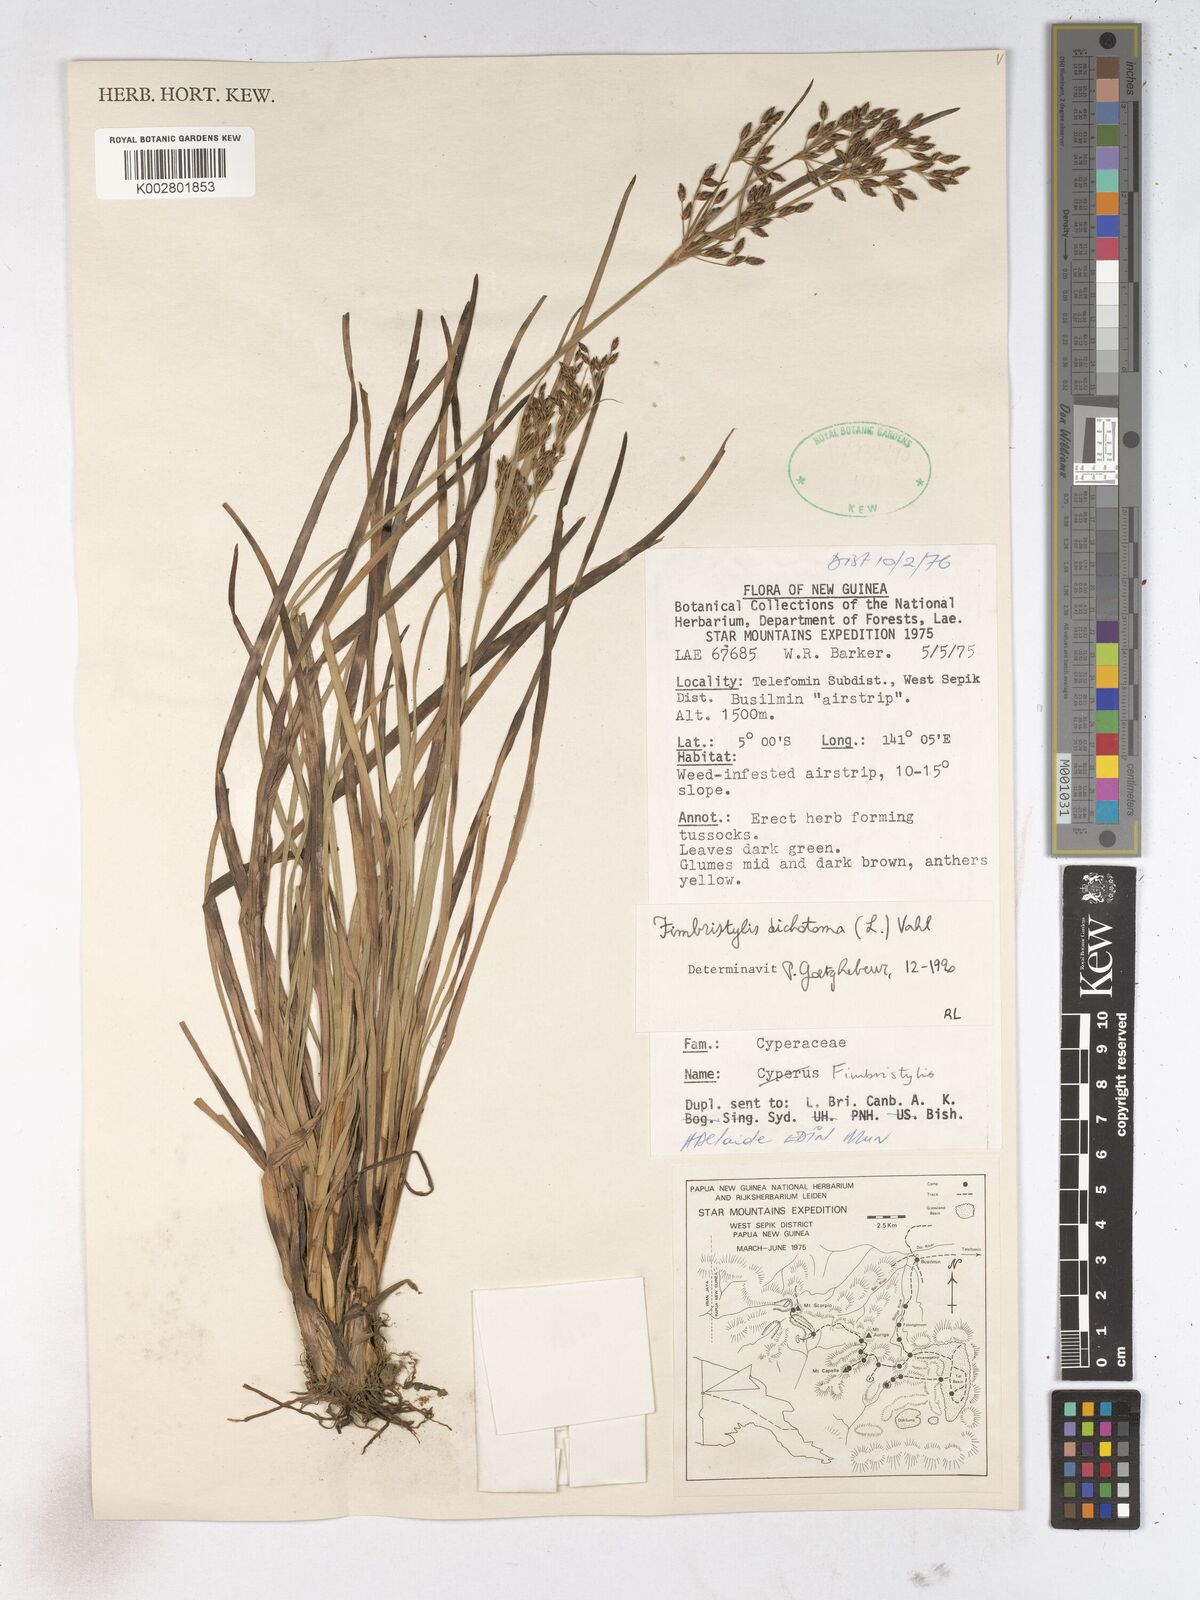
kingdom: Plantae
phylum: Tracheophyta
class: Liliopsida
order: Poales
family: Cyperaceae
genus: Fimbristylis
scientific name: Fimbristylis dichotoma
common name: Forked fimbry
